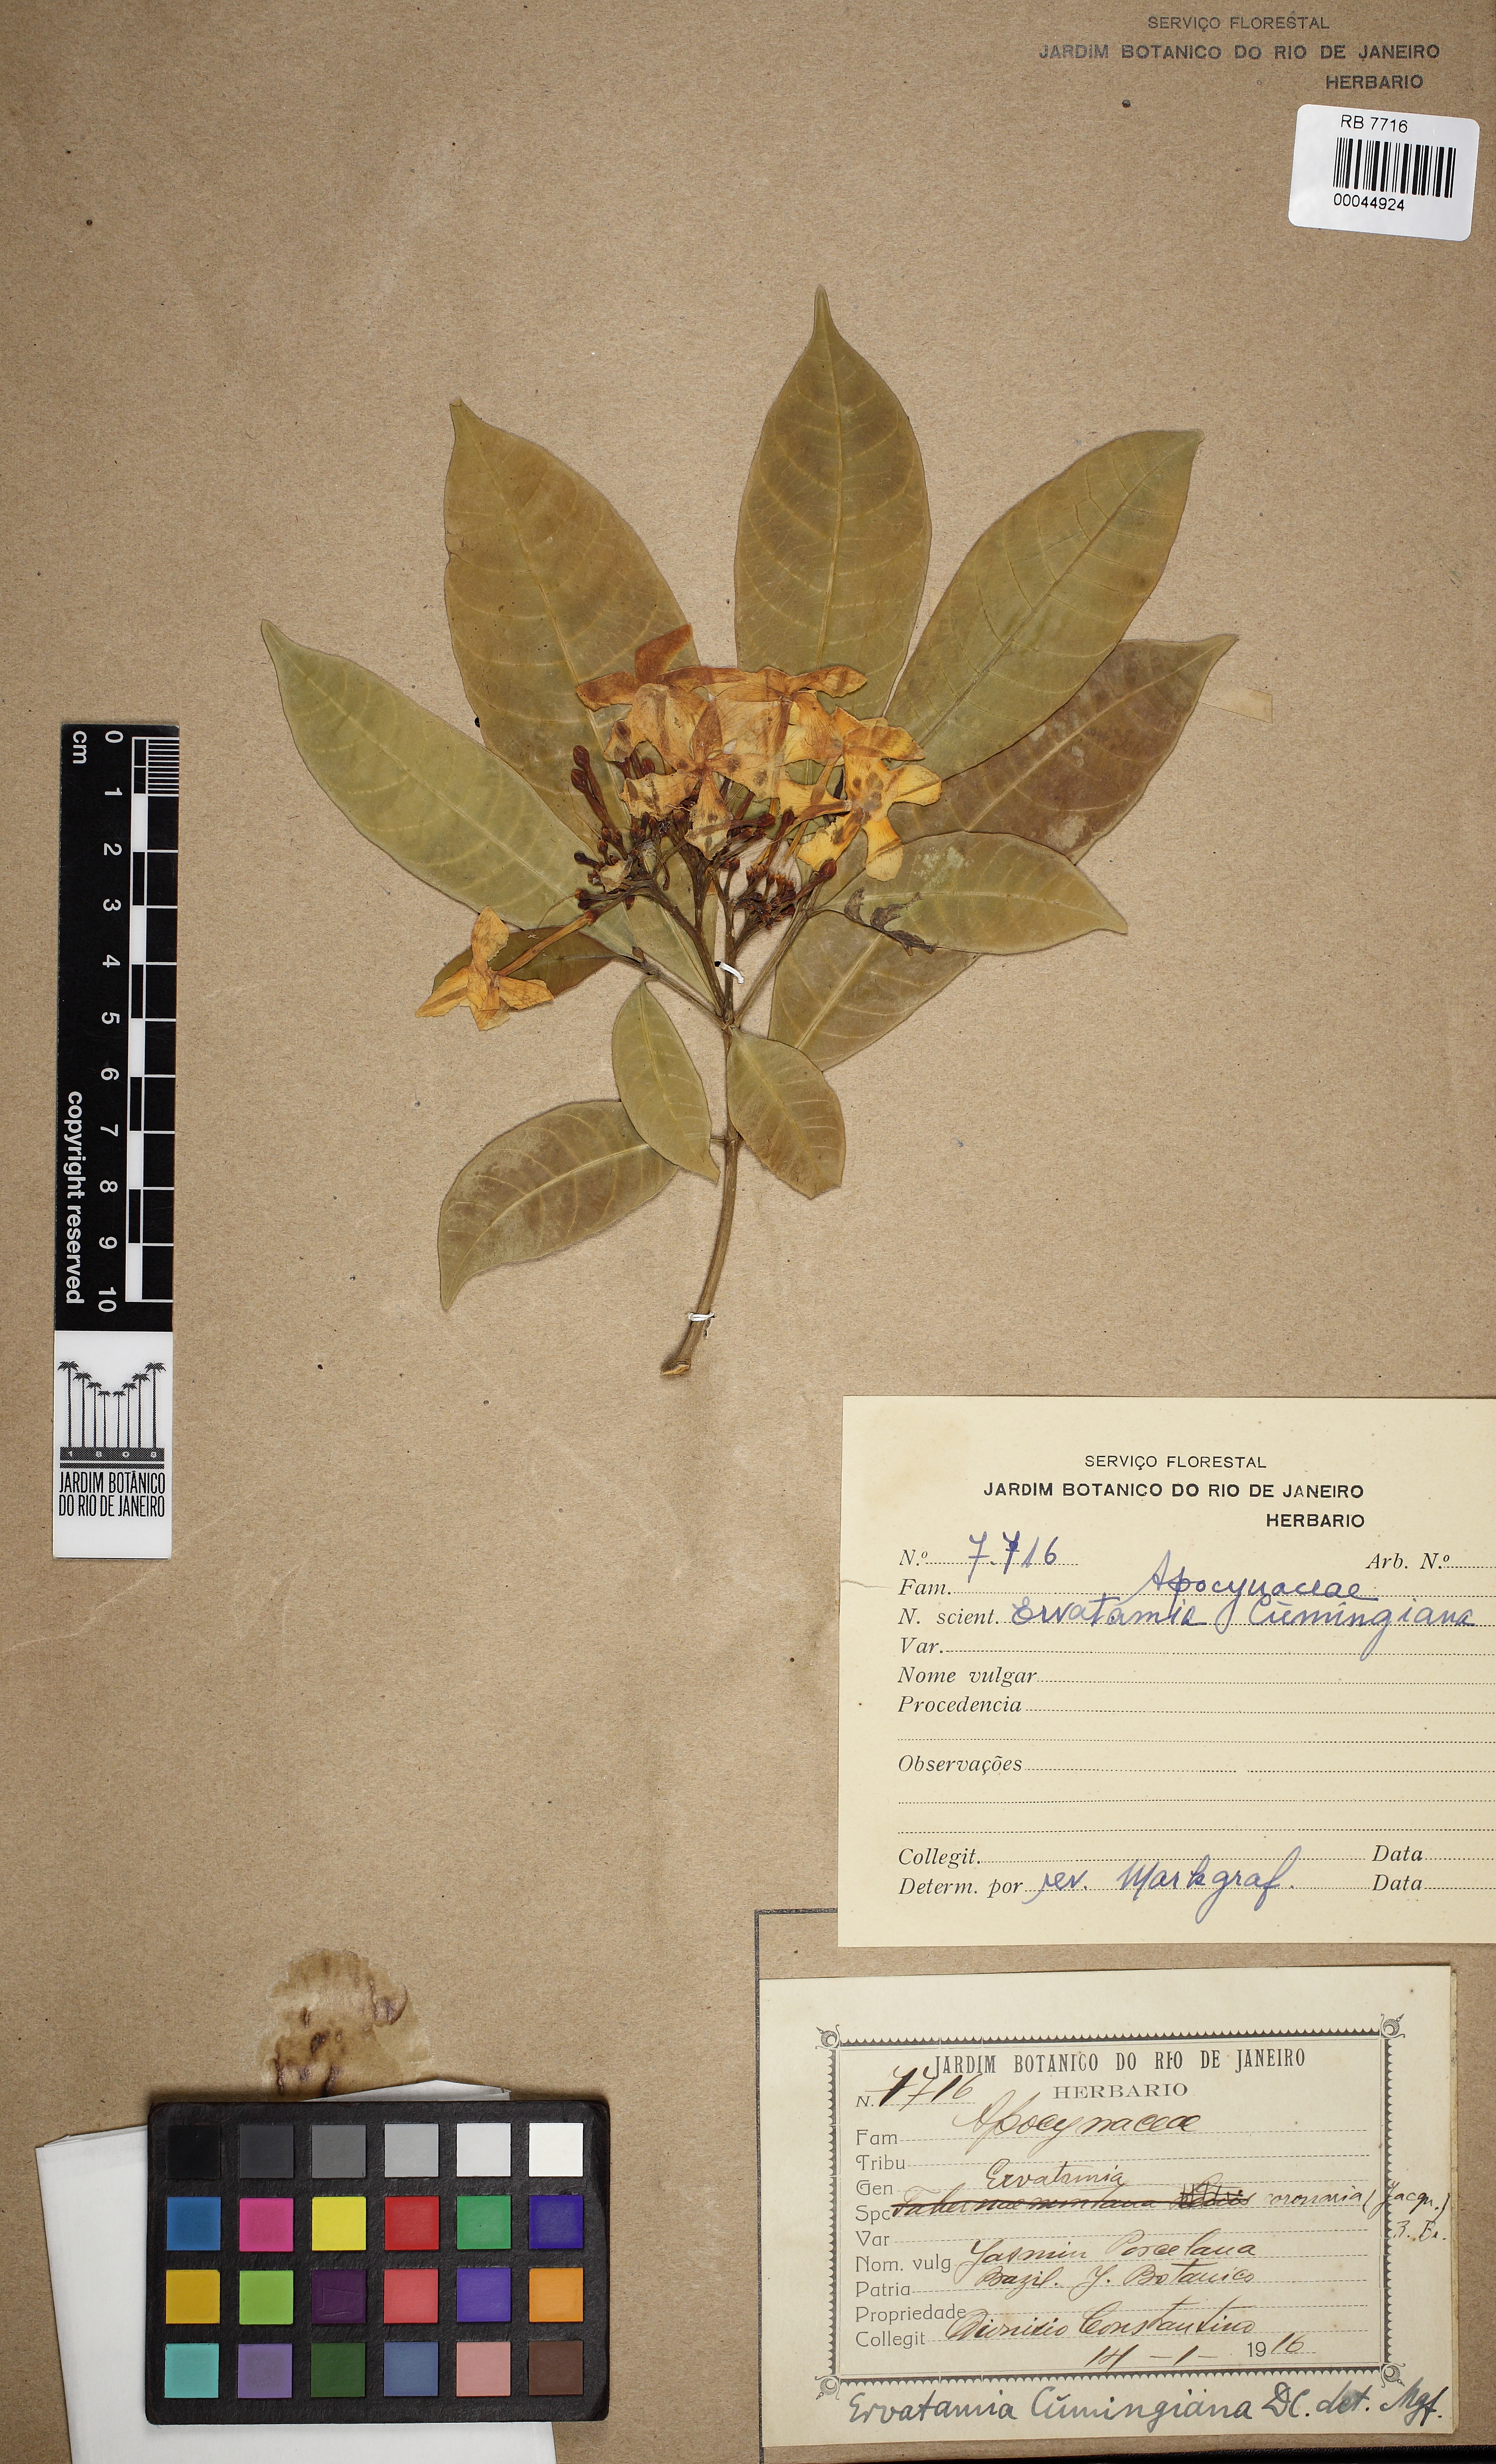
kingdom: Plantae
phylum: Tracheophyta
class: Magnoliopsida
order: Gentianales
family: Apocynaceae
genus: Tabernaemontana
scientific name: Tabernaemontana pandacaqui
